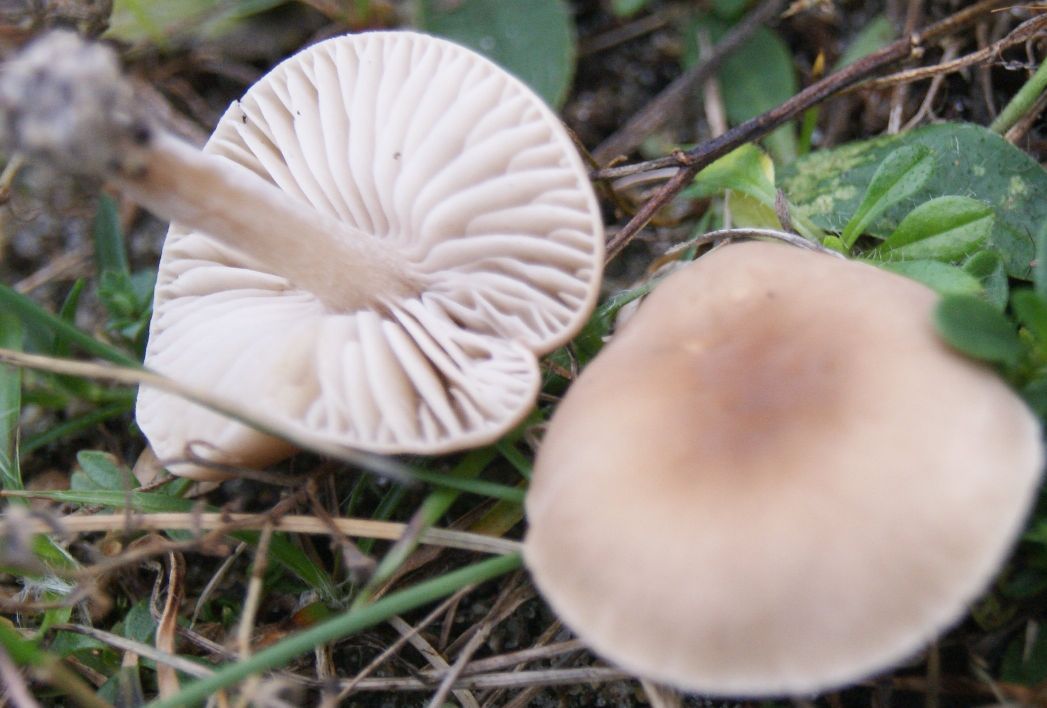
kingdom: Fungi
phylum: Basidiomycota
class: Agaricomycetes
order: Agaricales
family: Tricholomataceae
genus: Dermoloma
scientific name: Dermoloma cuneifolium
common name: eng-nonnehat
